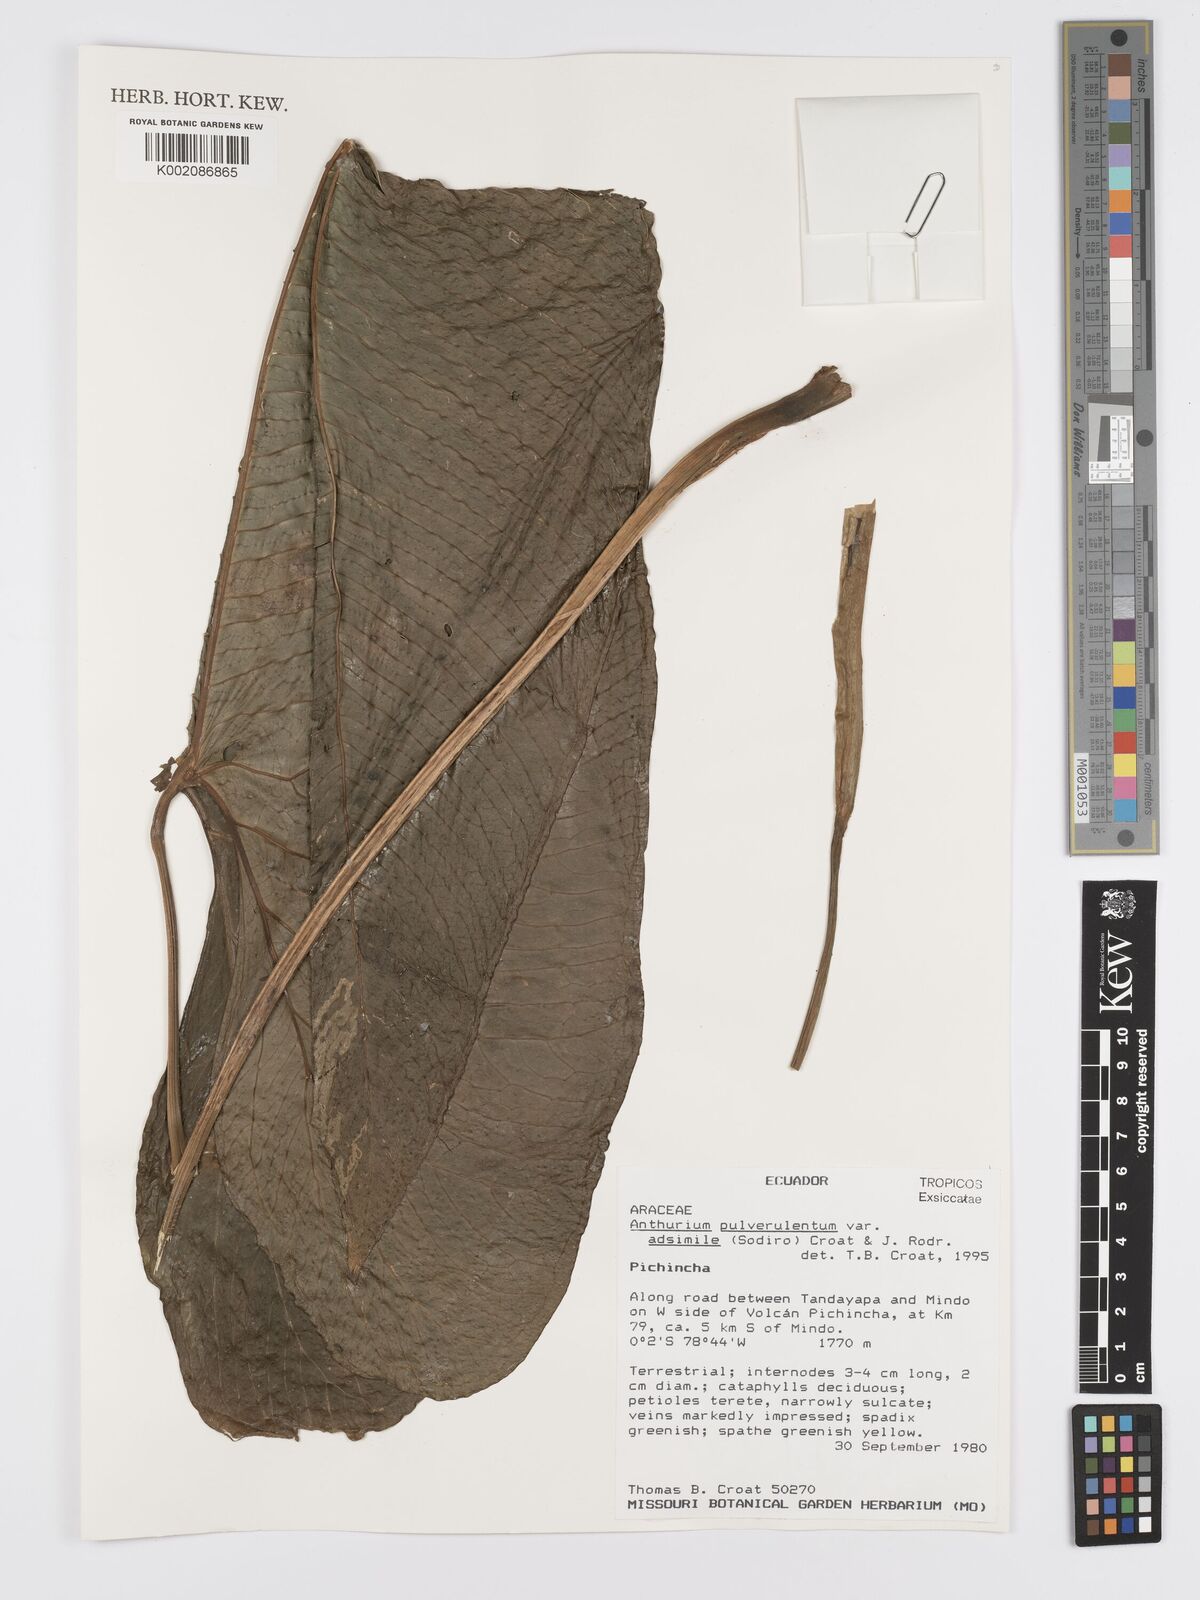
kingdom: Plantae
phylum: Tracheophyta
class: Liliopsida
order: Alismatales
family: Araceae
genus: Anthurium
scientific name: Anthurium pulverulentum
